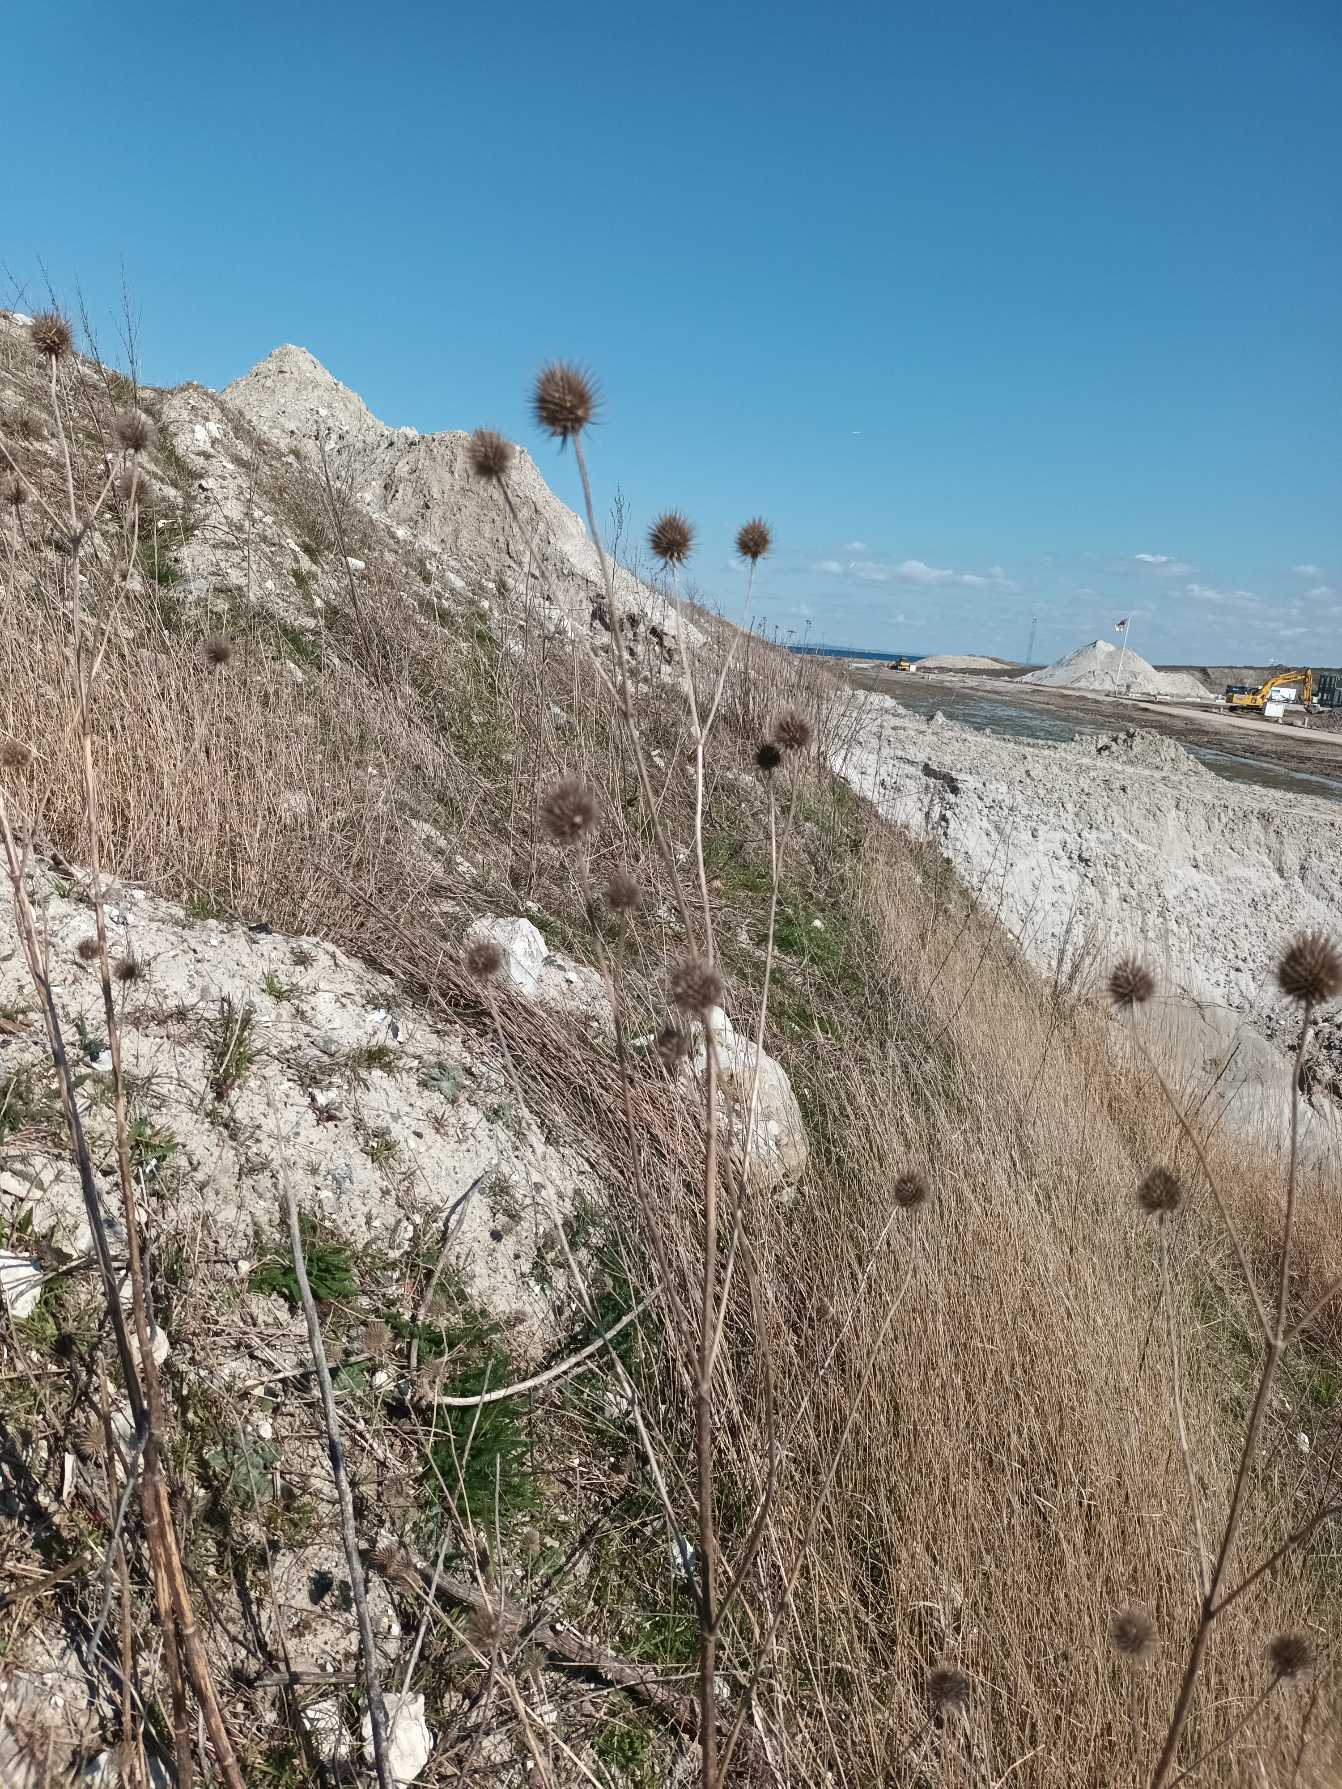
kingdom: Plantae
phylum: Tracheophyta
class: Magnoliopsida
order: Dipsacales
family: Caprifoliaceae
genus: Dipsacus
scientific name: Dipsacus strigosus
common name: Pindsvin-kartebolle
